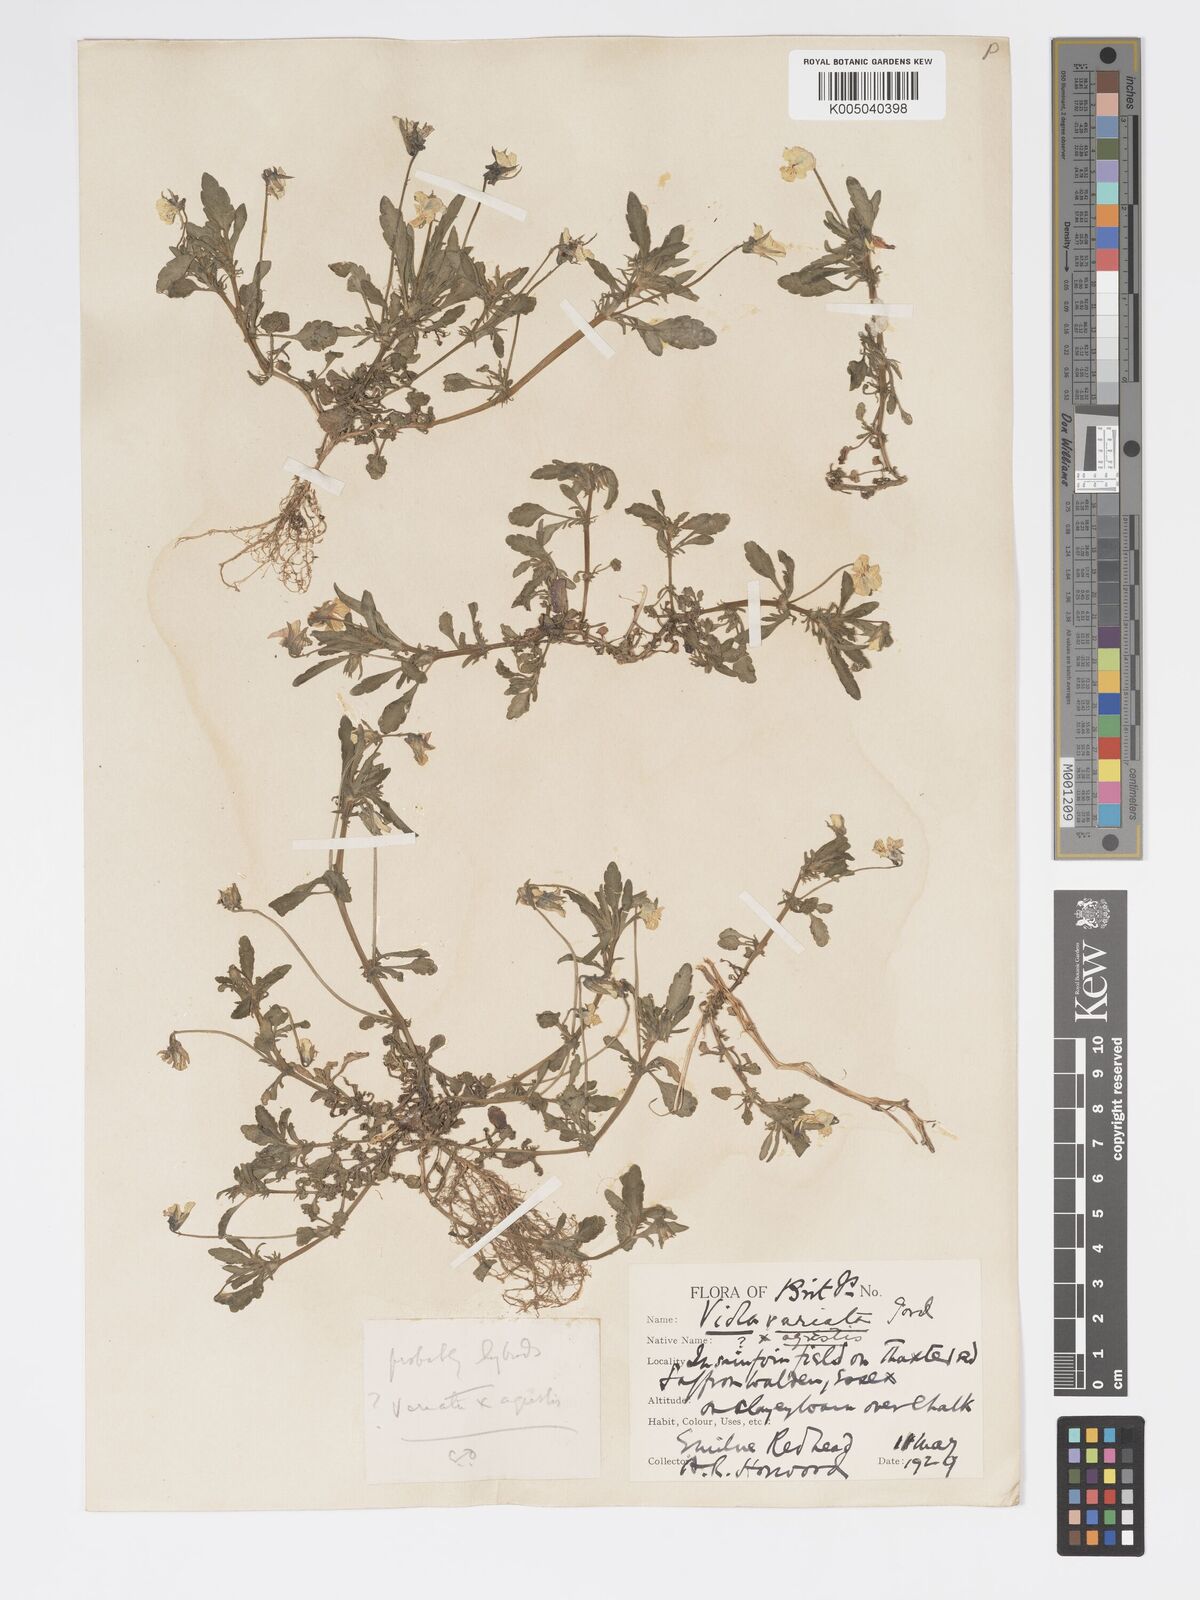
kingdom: Plantae
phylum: Tracheophyta
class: Magnoliopsida
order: Malpighiales
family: Violaceae
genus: Viola
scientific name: Viola arvensis
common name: Field pansy
